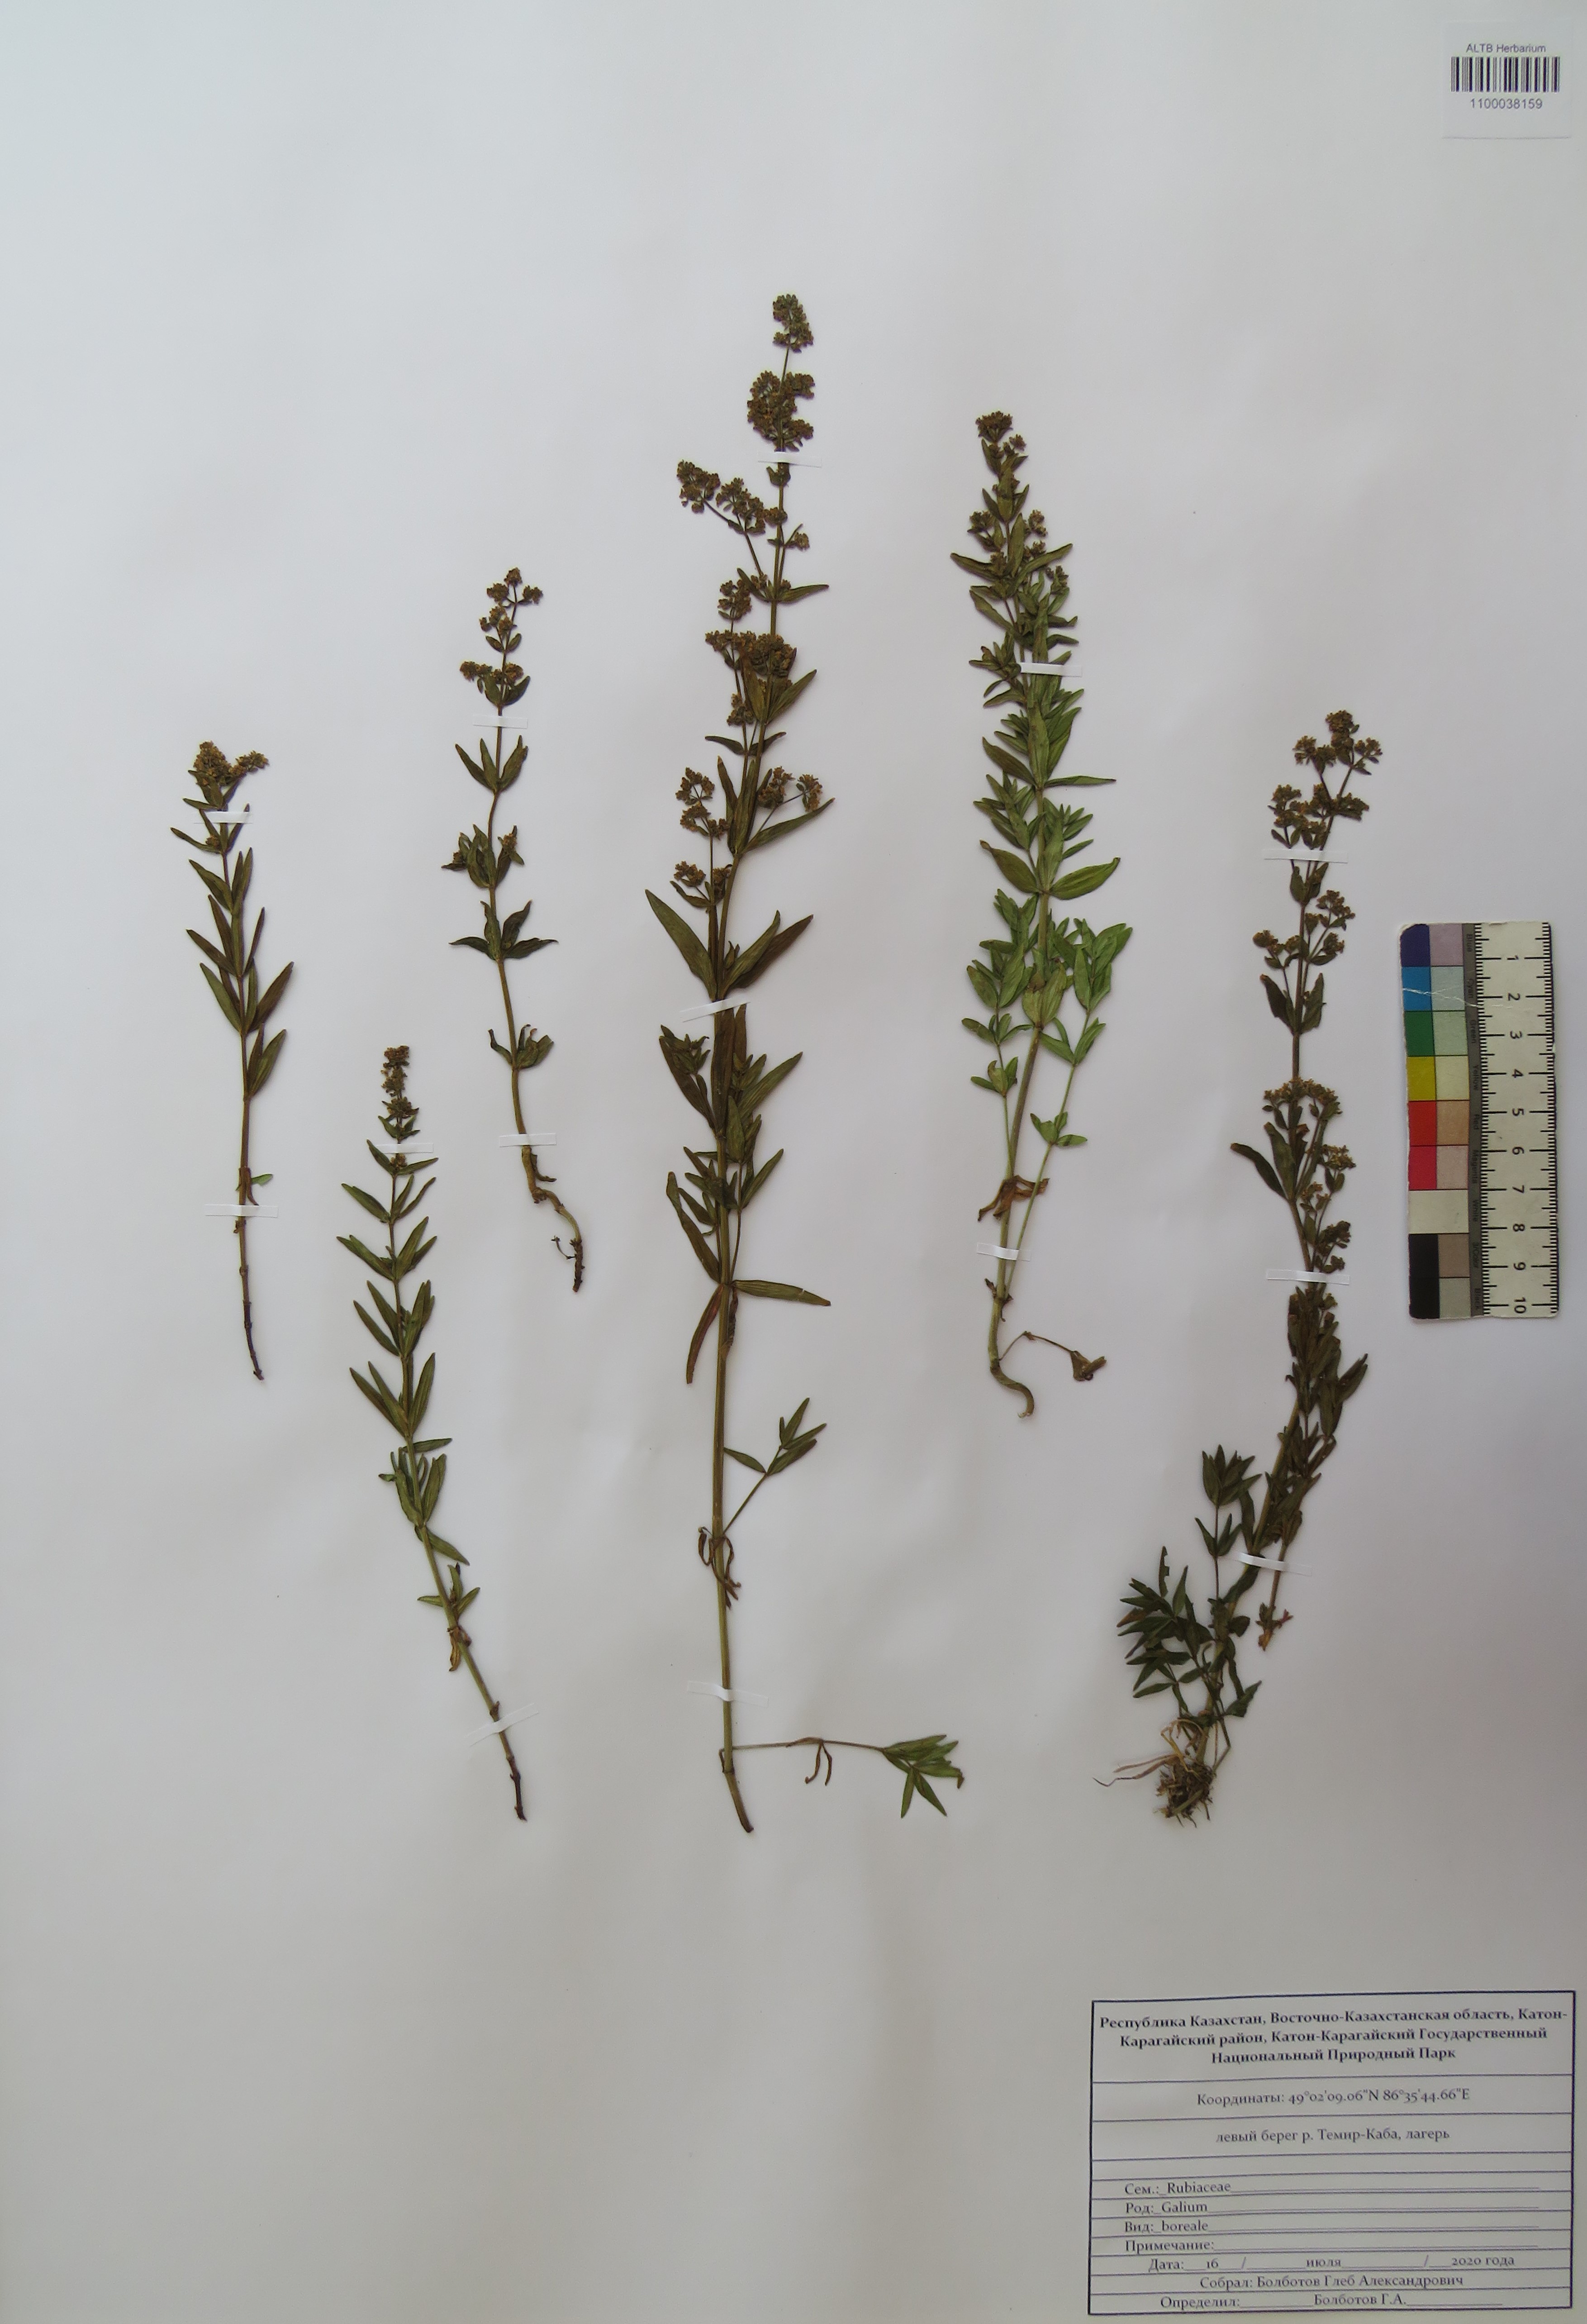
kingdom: Plantae
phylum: Tracheophyta
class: Magnoliopsida
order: Gentianales
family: Rubiaceae
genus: Galium
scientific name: Galium boreale
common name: Northern bedstraw
